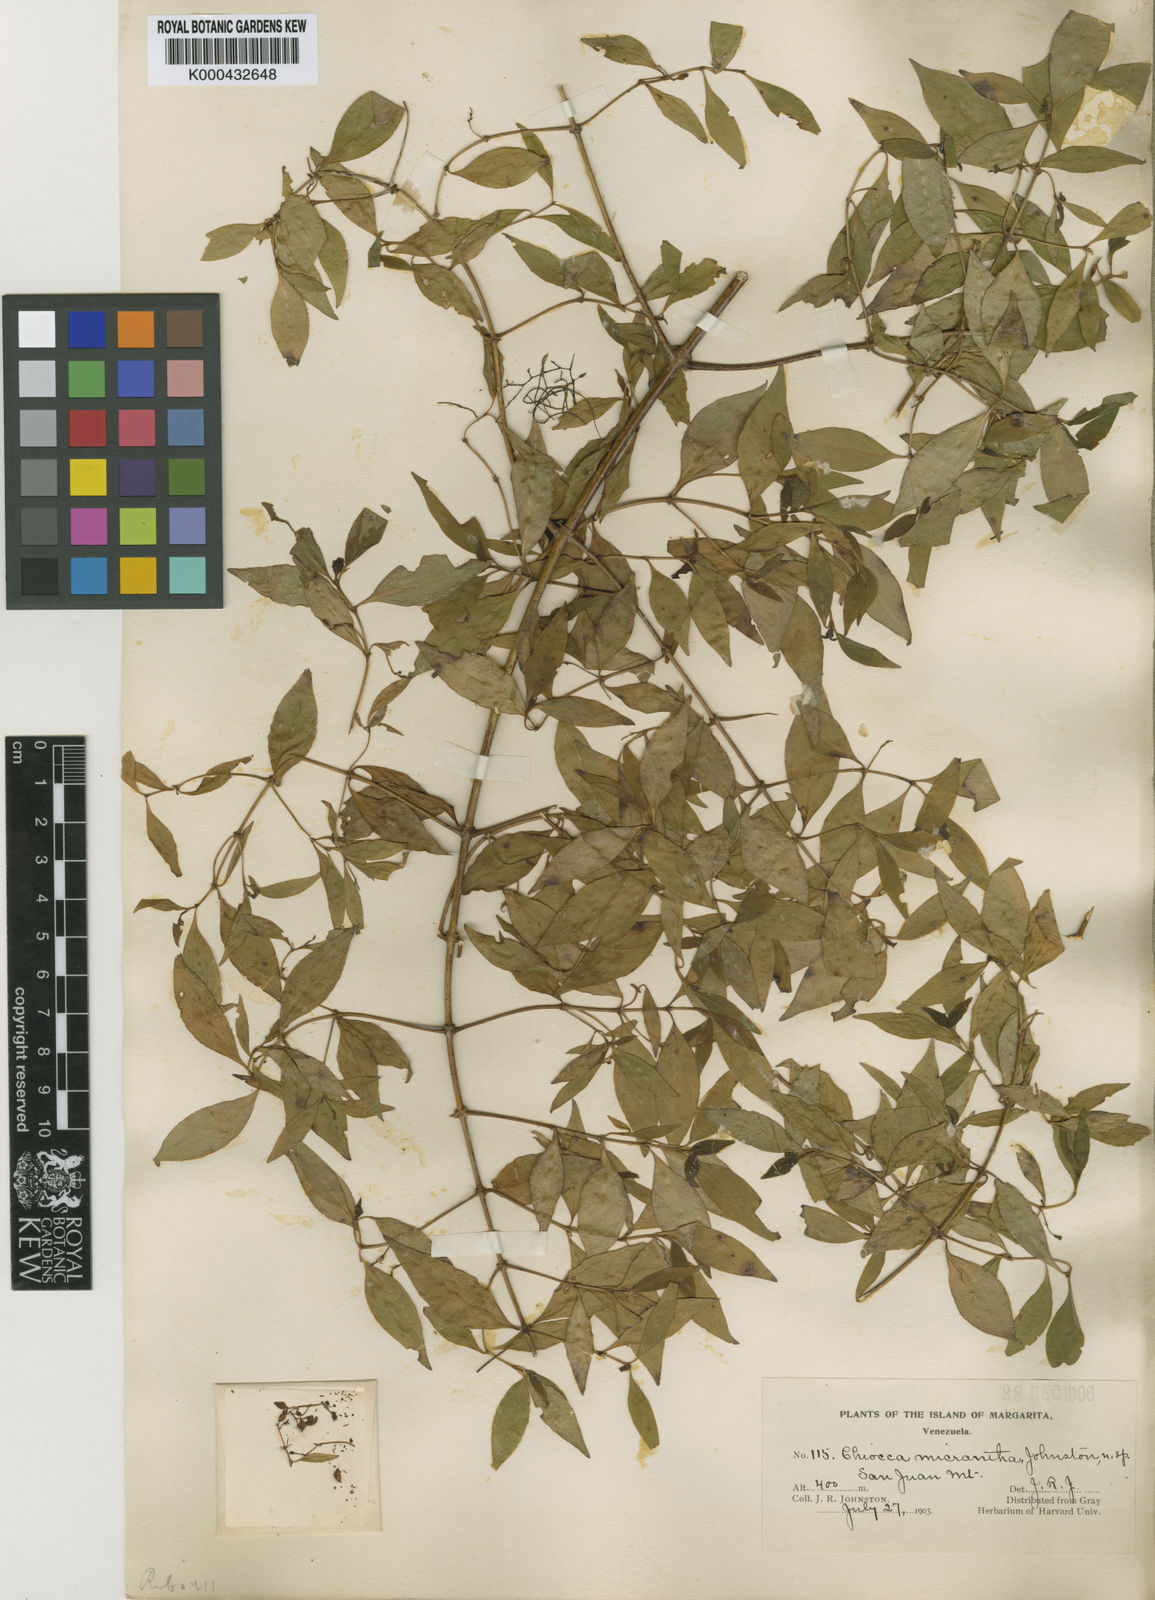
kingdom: Plantae
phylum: Tracheophyta
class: Magnoliopsida
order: Gentianales
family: Rubiaceae
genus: Chiococca
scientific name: Chiococca alba
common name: Snowberry
